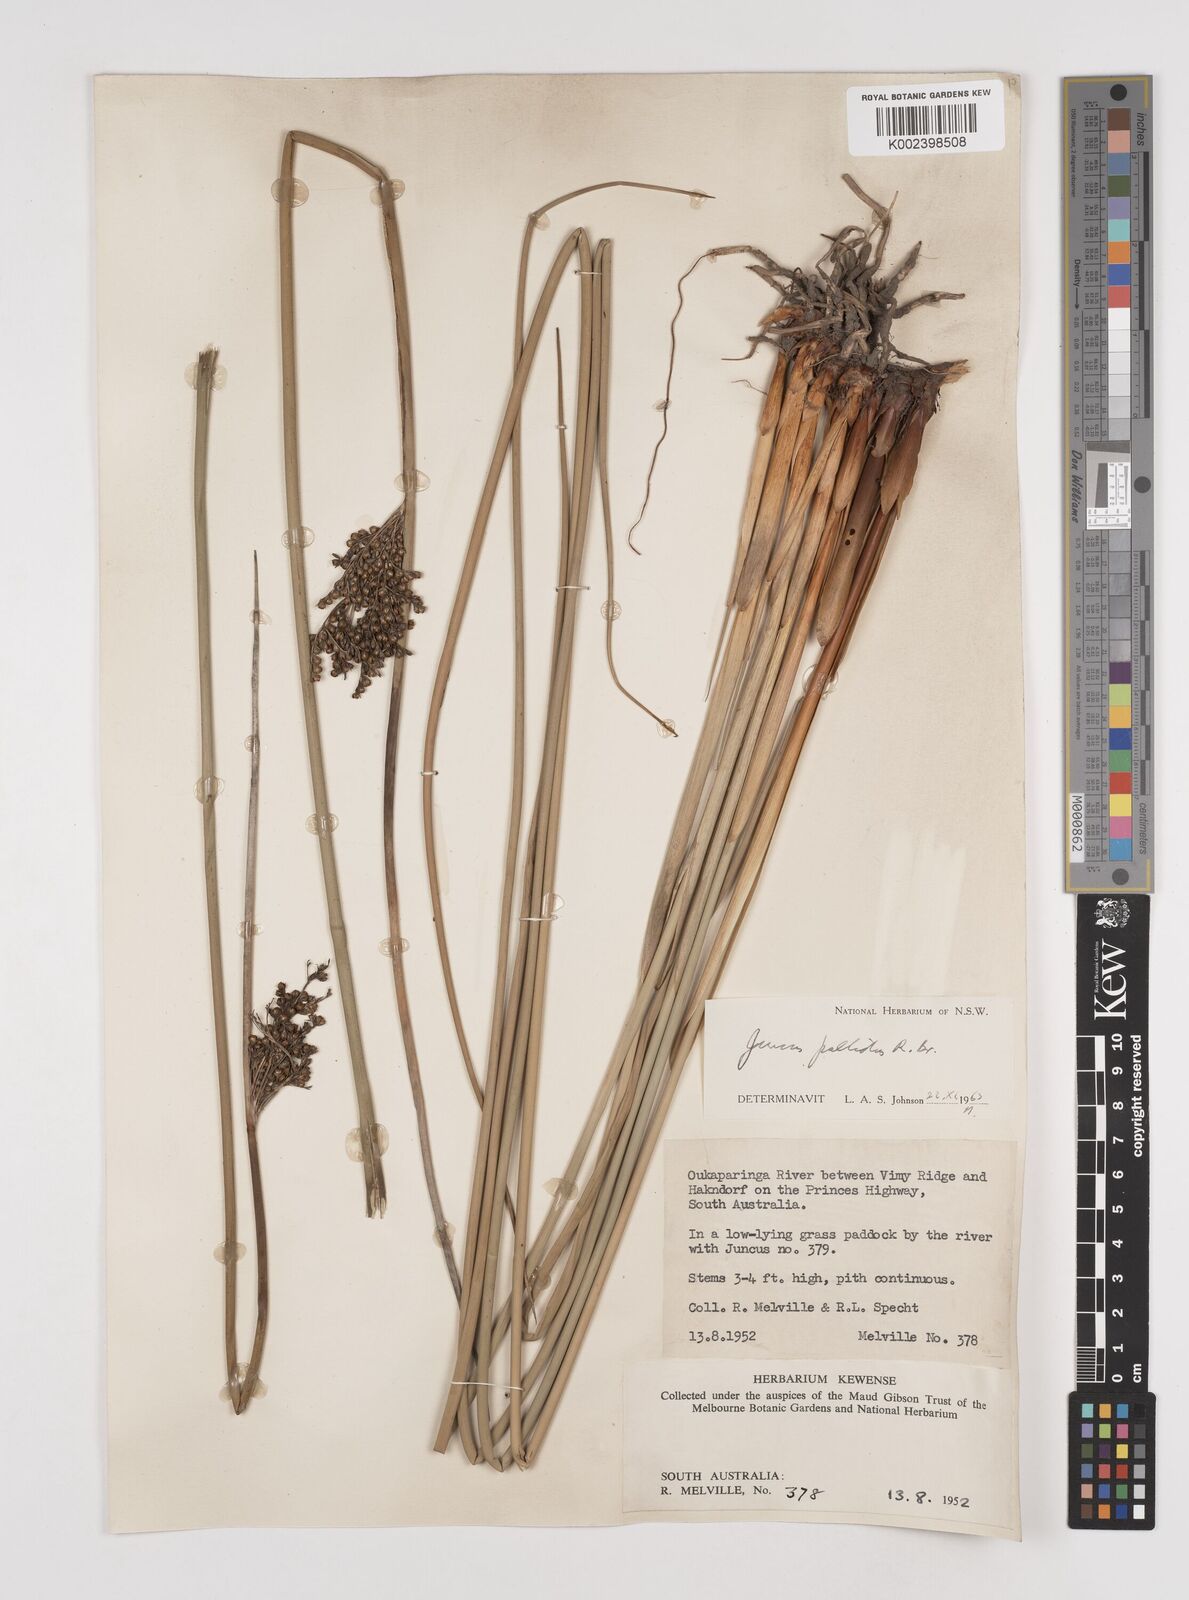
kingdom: Plantae
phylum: Tracheophyta
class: Liliopsida
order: Poales
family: Juncaceae
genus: Juncus
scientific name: Juncus pallidus
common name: Great soft-rush
